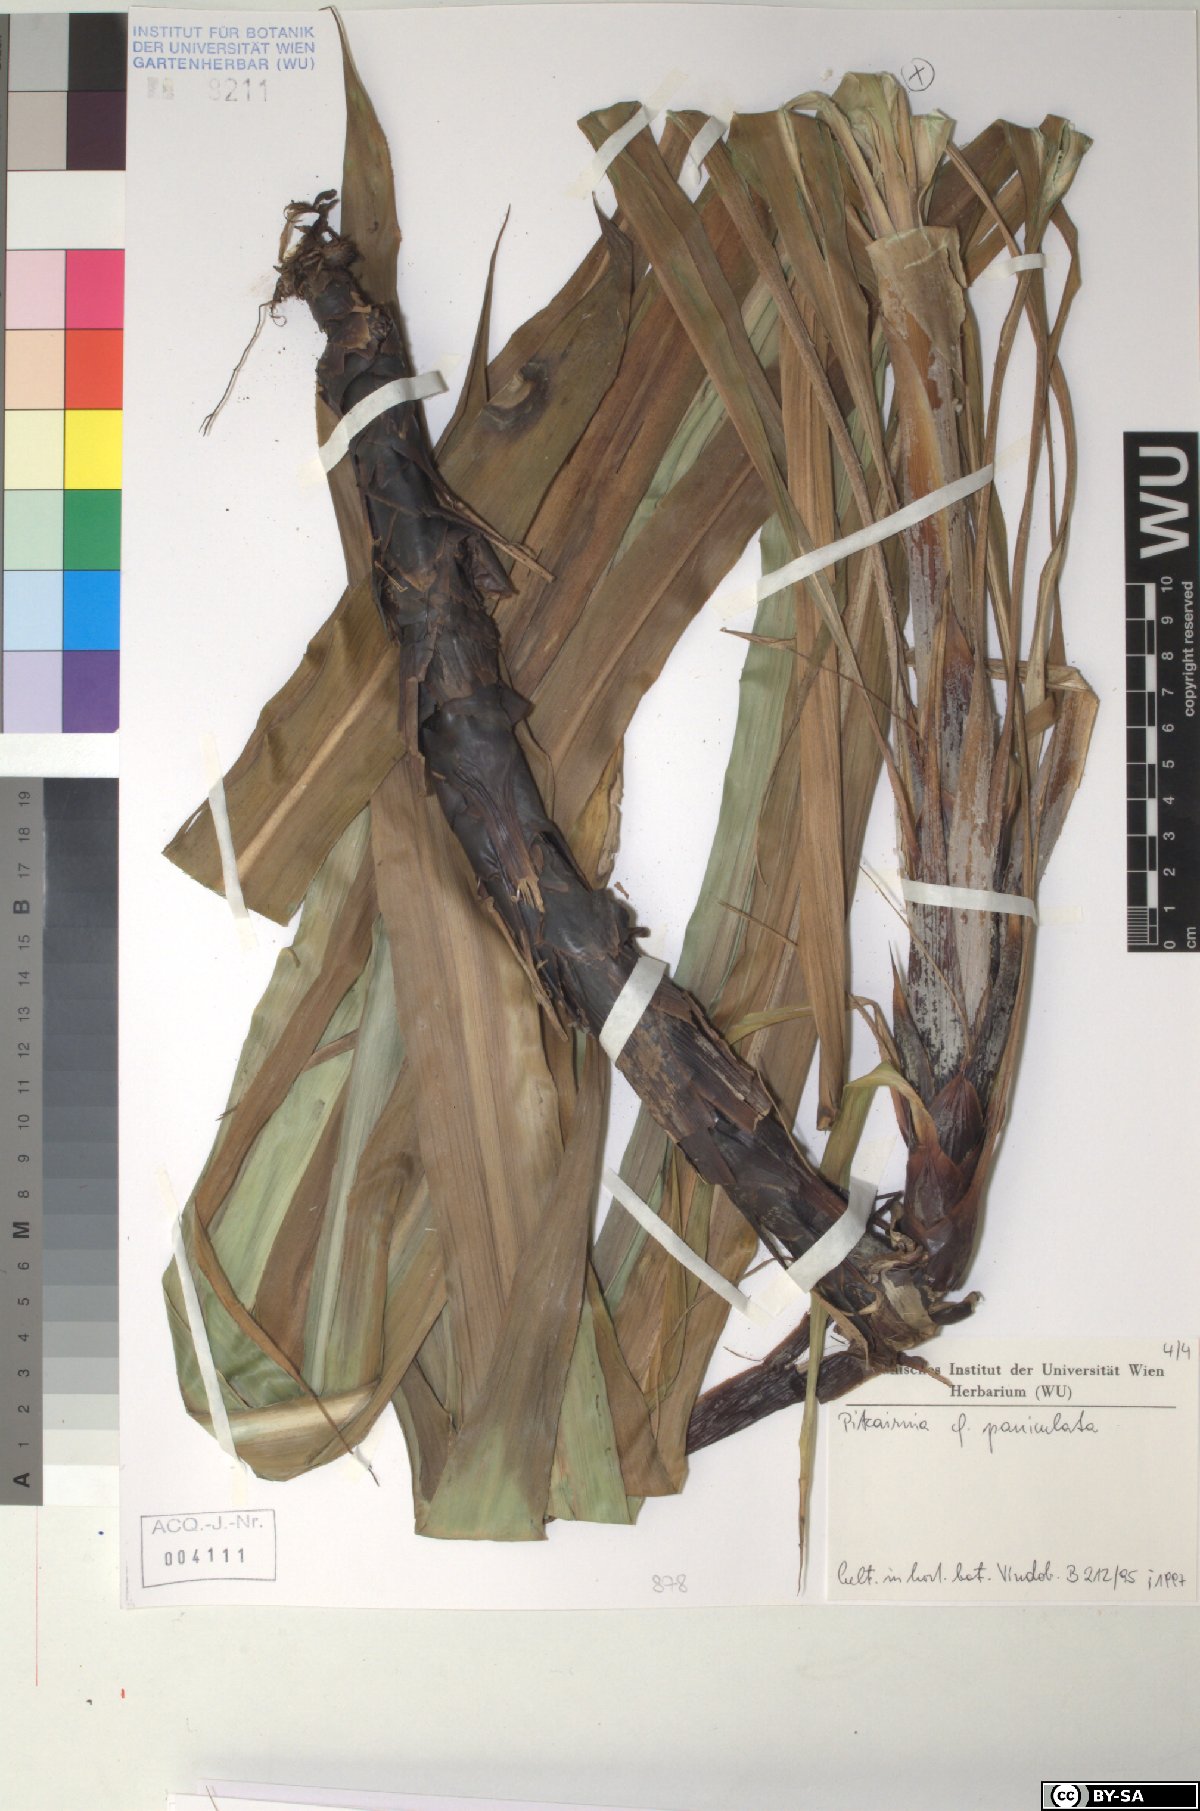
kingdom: Plantae
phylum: Tracheophyta
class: Liliopsida
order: Poales
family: Bromeliaceae
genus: Pitcairnia
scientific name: Pitcairnia paniculata
